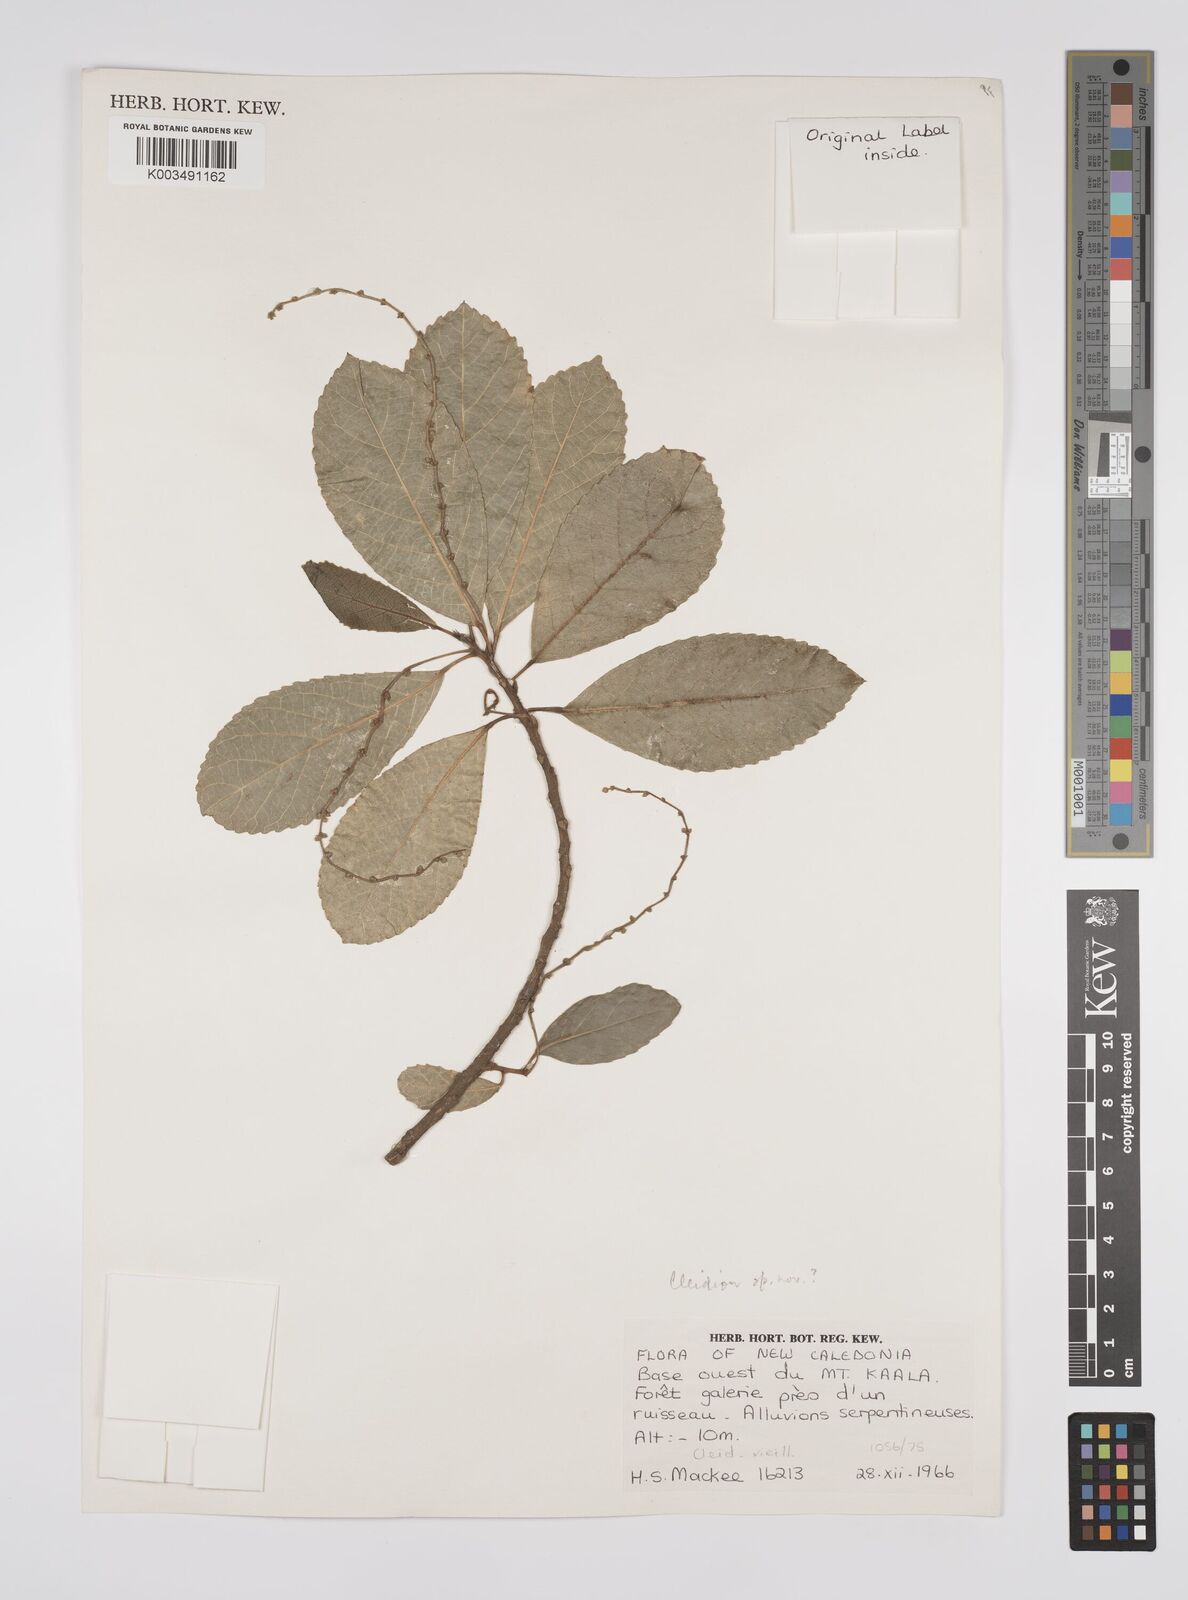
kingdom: Plantae
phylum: Tracheophyta
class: Magnoliopsida
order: Malpighiales
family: Euphorbiaceae
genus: Cleidion
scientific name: Cleidion claoxyloides
